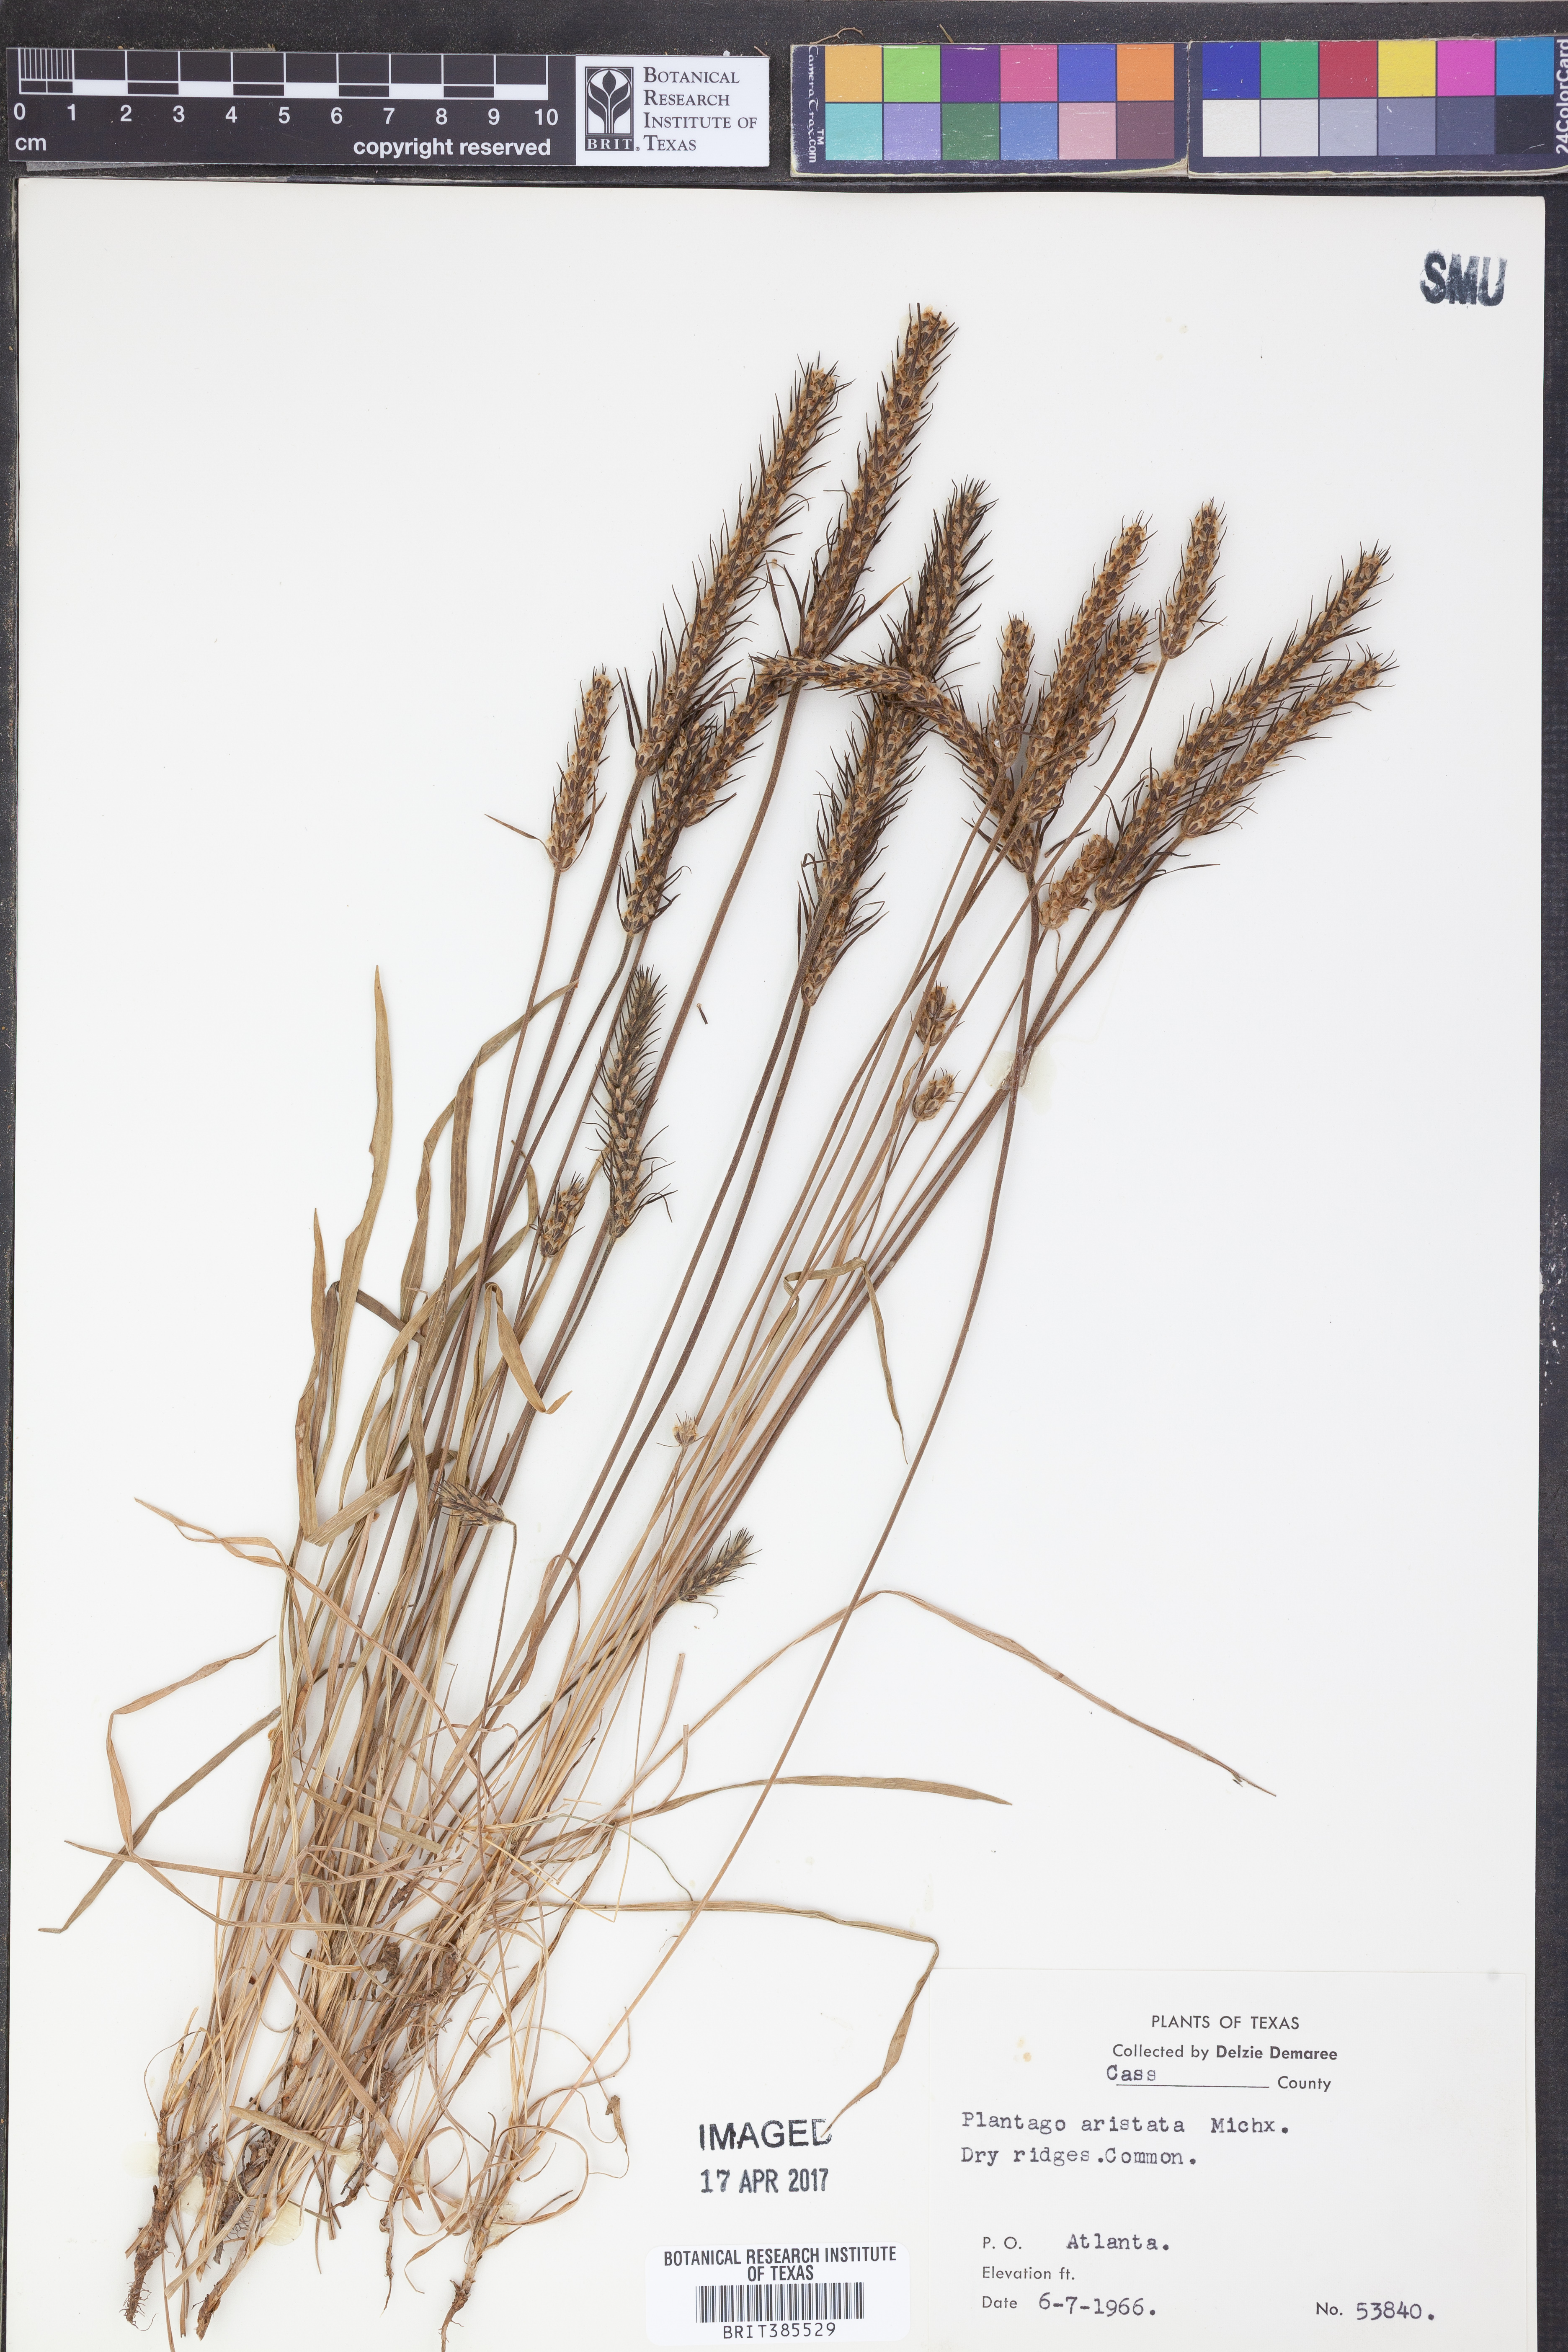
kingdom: Plantae
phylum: Tracheophyta
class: Magnoliopsida
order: Lamiales
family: Plantaginaceae
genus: Plantago
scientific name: Plantago aristata
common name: Bracted plantain
